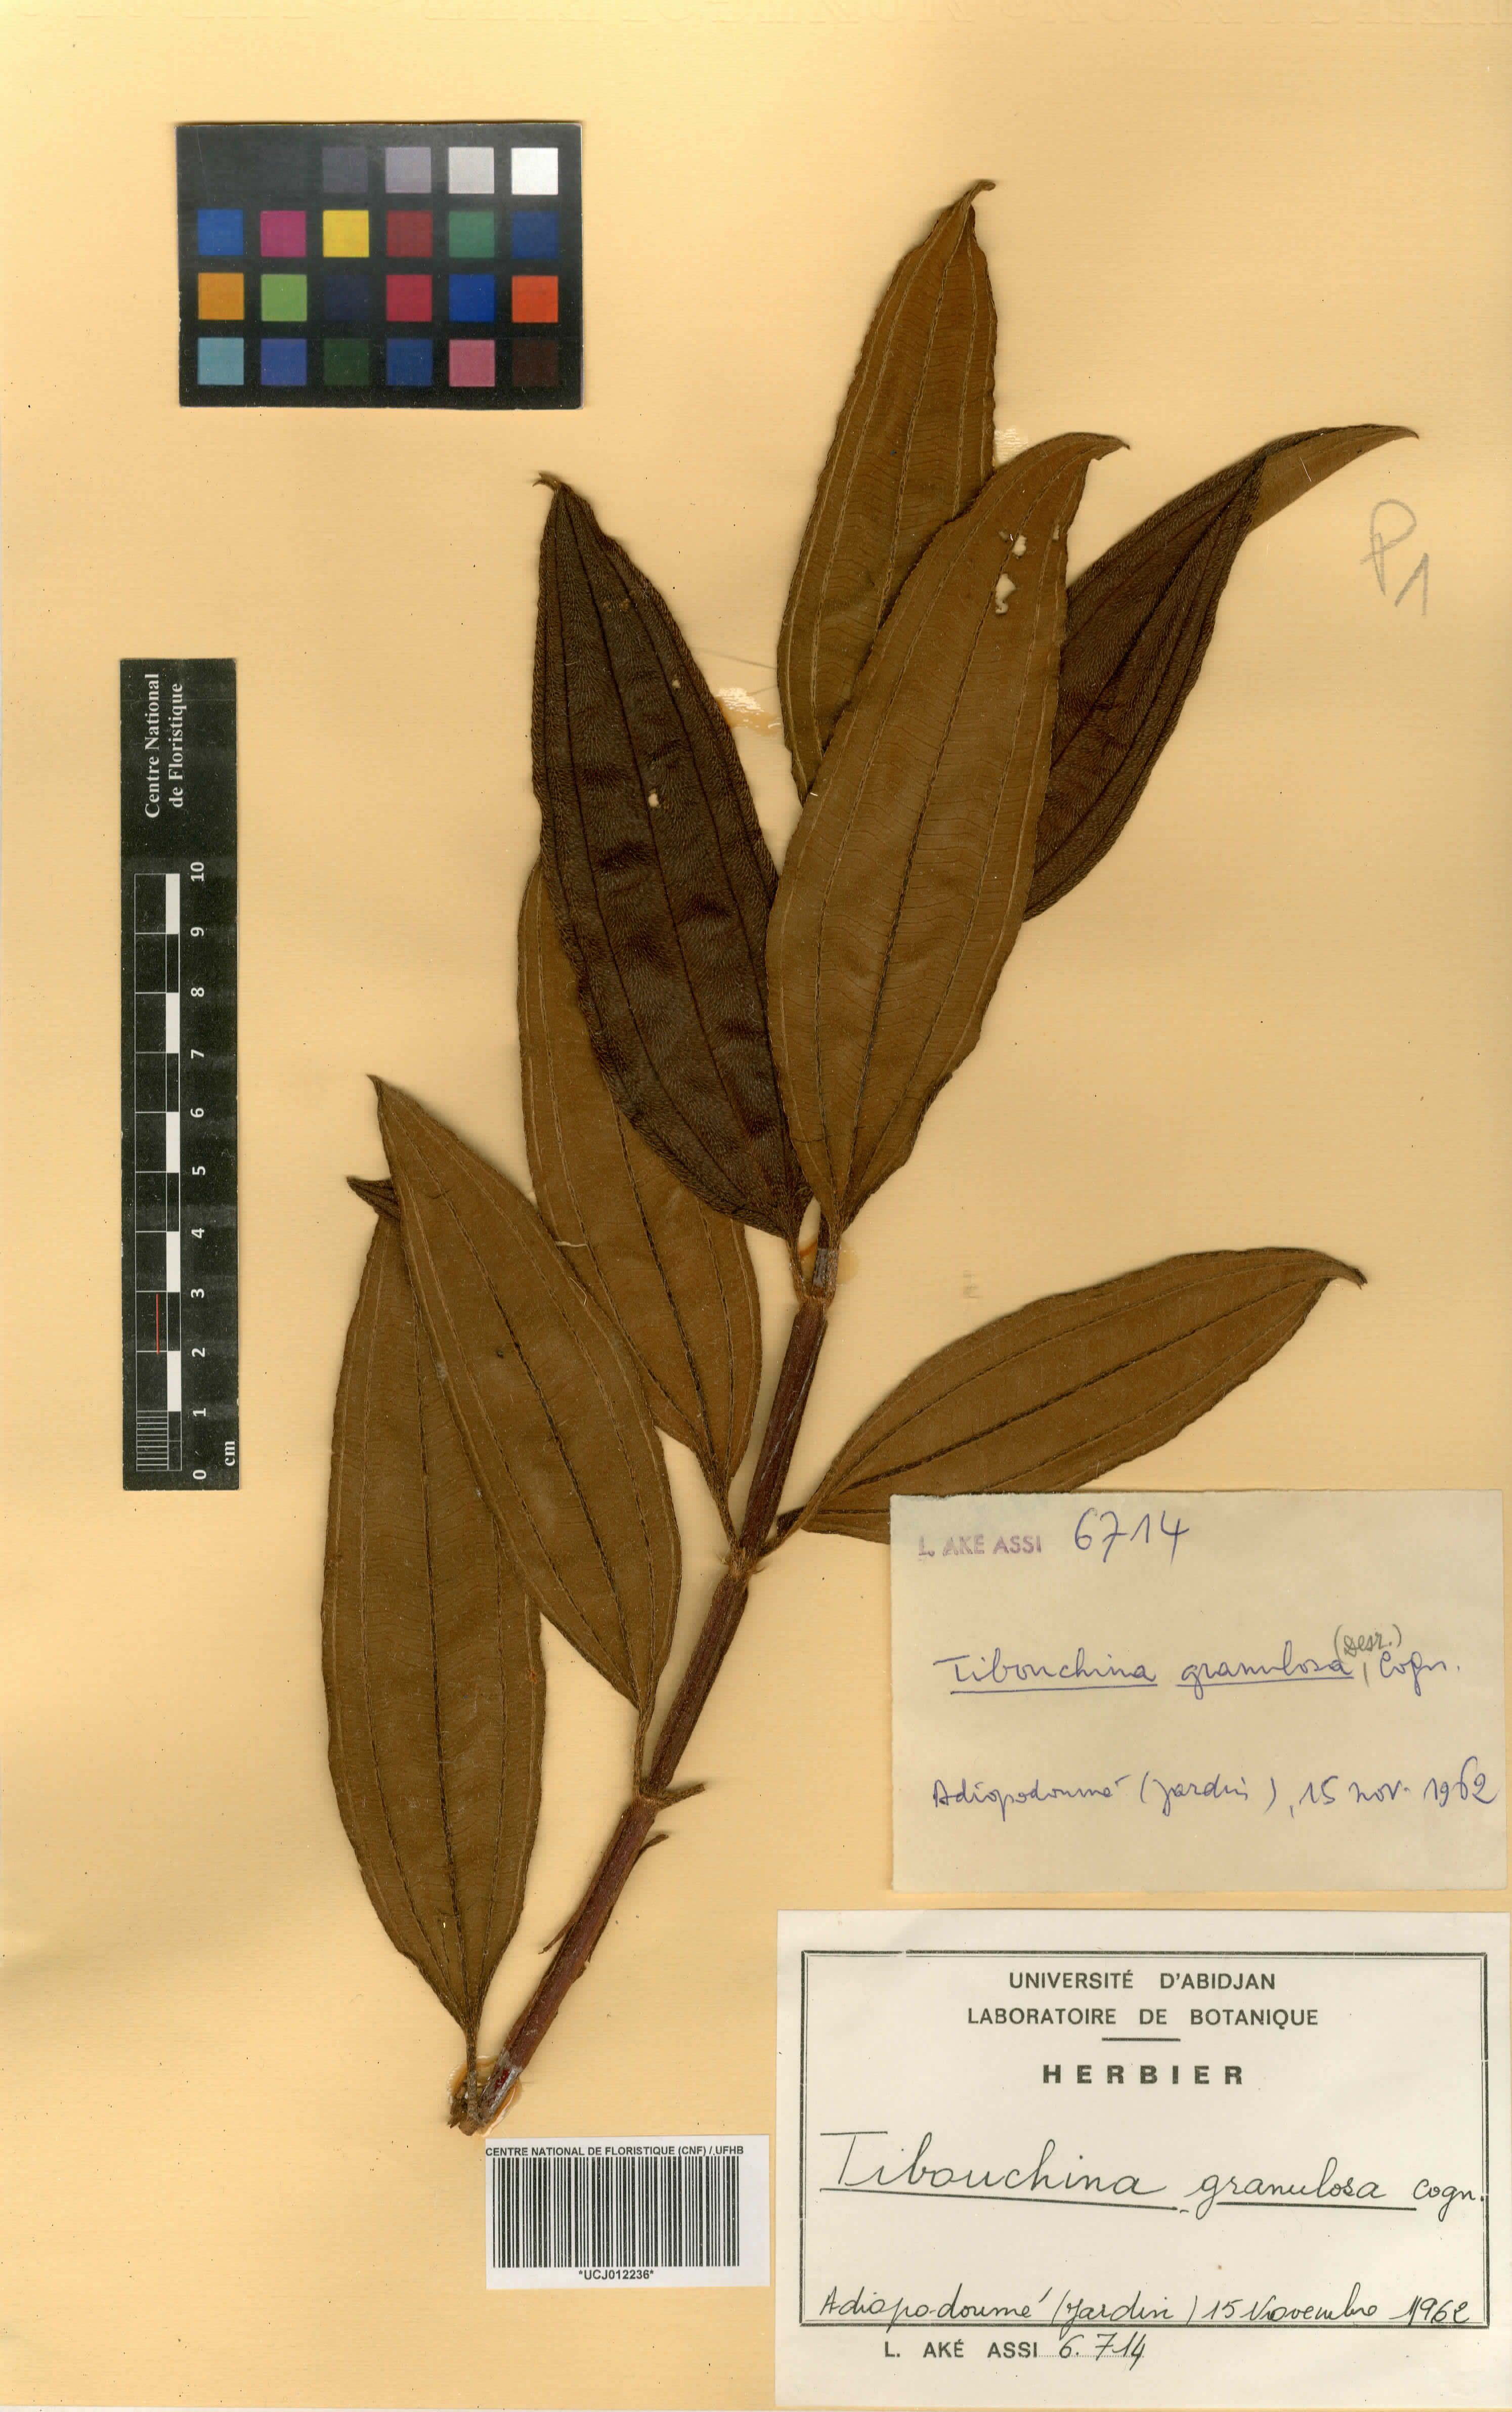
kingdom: Plantae
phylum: Tracheophyta
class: Magnoliopsida
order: Myrtales
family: Melastomataceae
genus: Pleroma
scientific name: Pleroma granulosum
